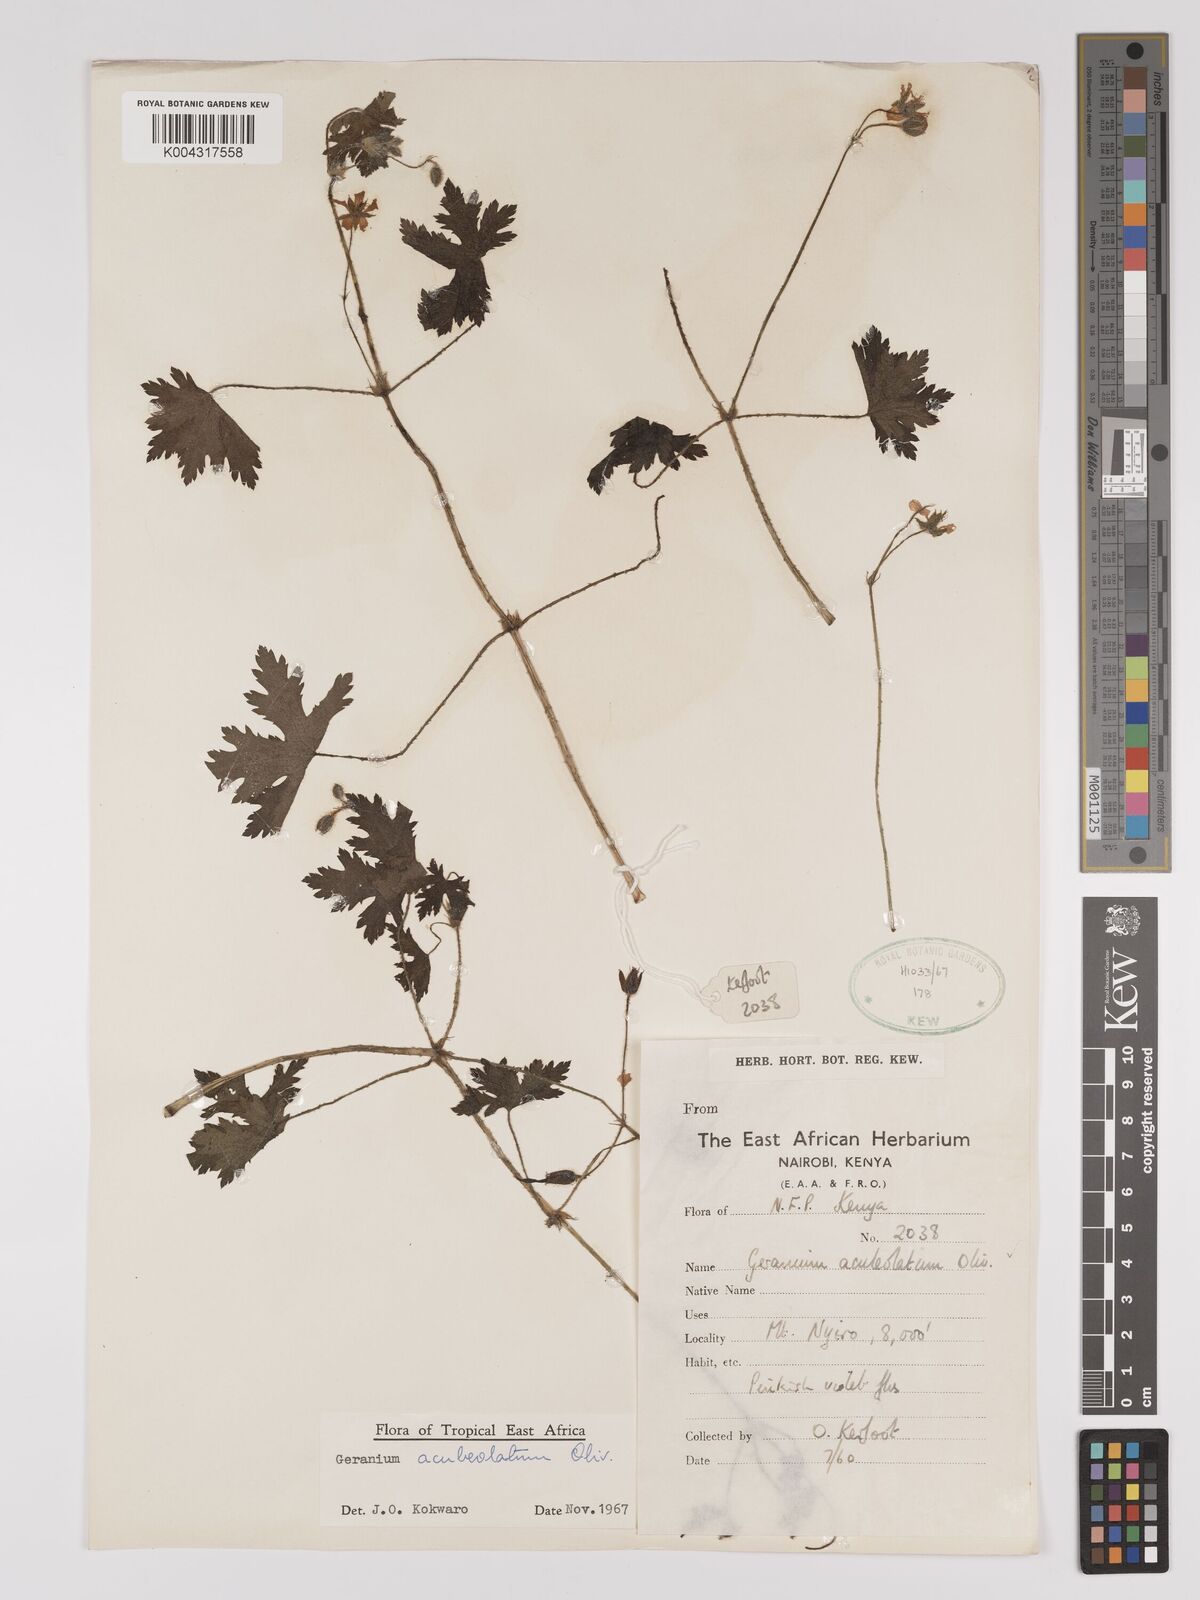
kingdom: Plantae
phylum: Tracheophyta
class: Magnoliopsida
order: Geraniales
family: Geraniaceae
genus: Geranium
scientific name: Geranium aculeolatum
